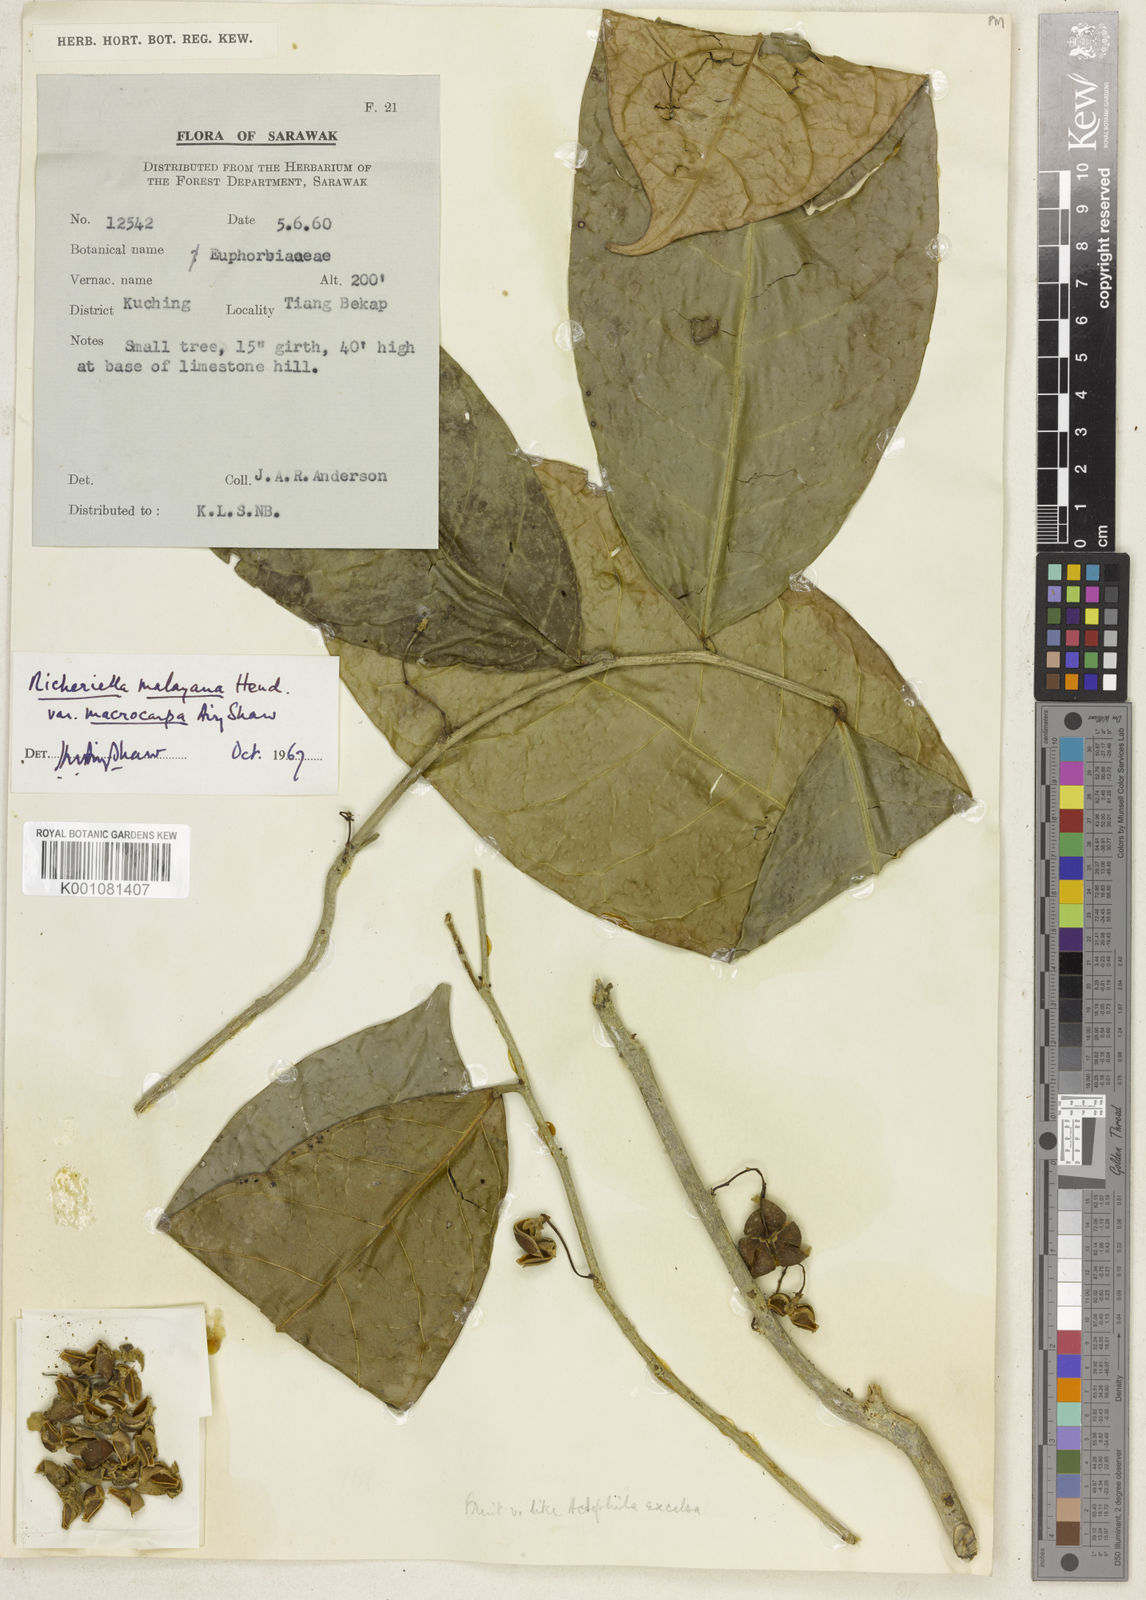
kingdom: Plantae
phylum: Tracheophyta
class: Magnoliopsida
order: Malpighiales
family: Phyllanthaceae
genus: Flueggea
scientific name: Flueggea gracilis
